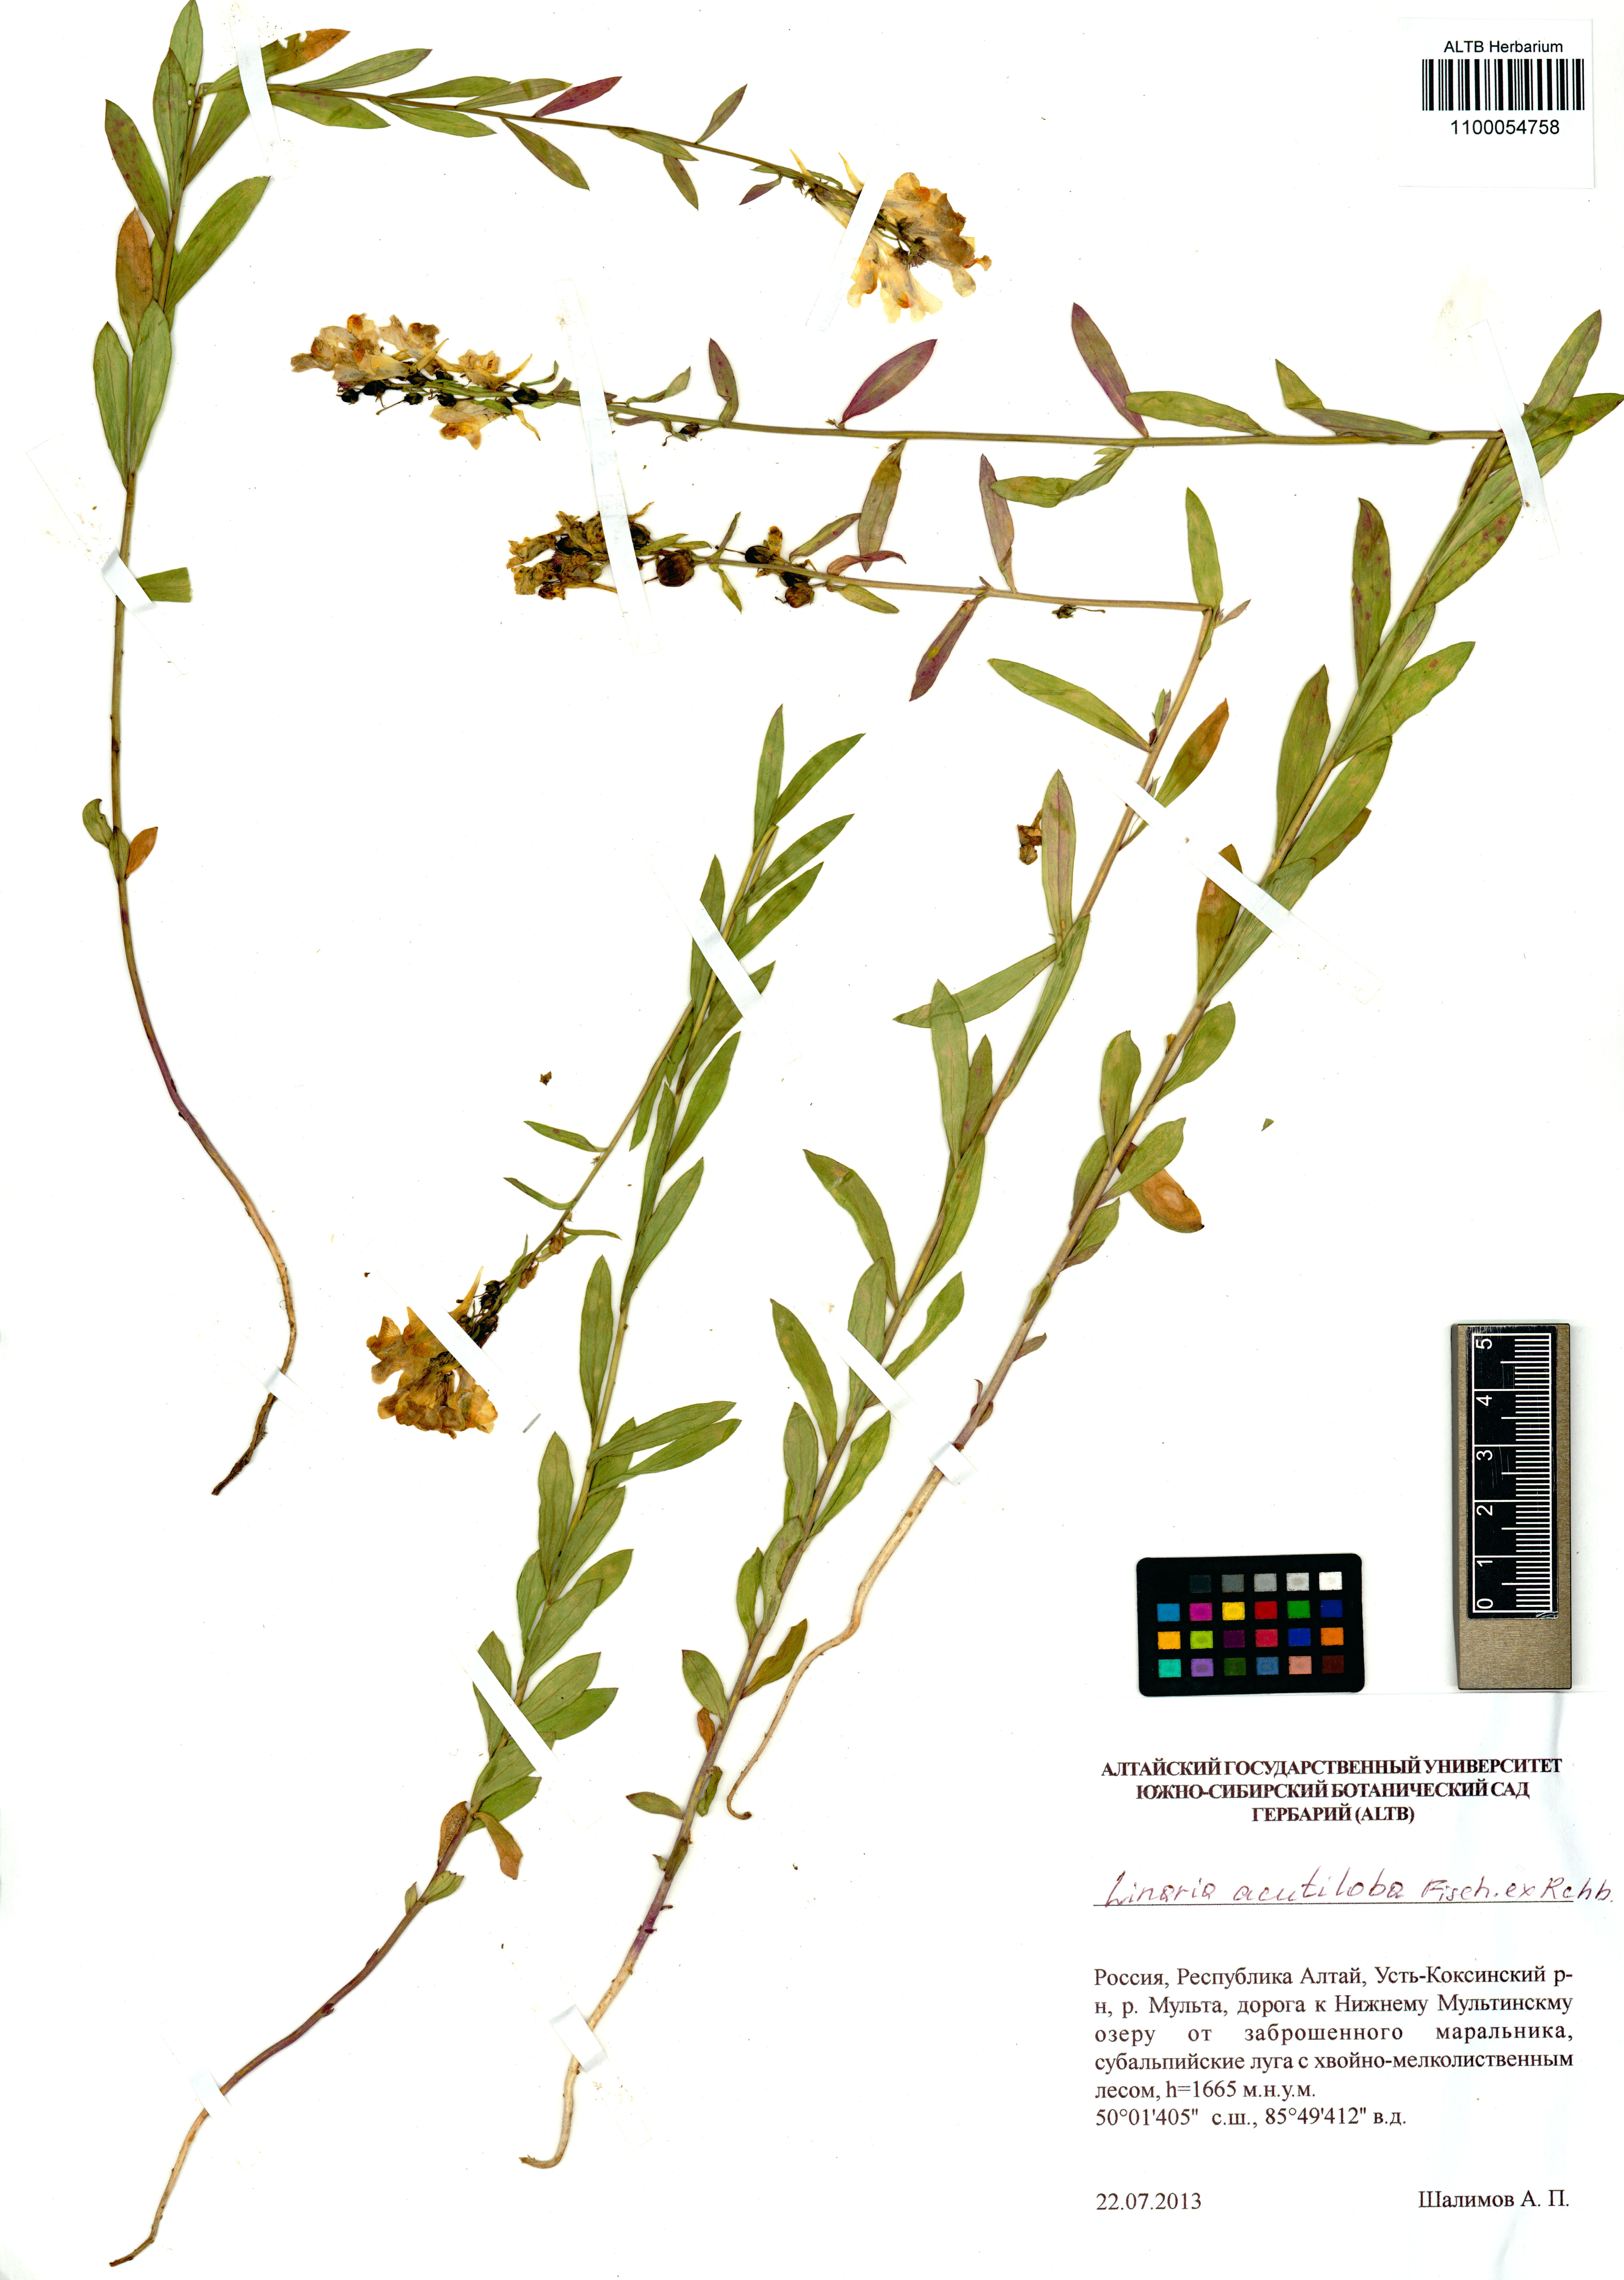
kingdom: Plantae
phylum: Tracheophyta
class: Magnoliopsida
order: Lamiales
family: Plantaginaceae
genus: Linaria
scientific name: Linaria acutiloba
